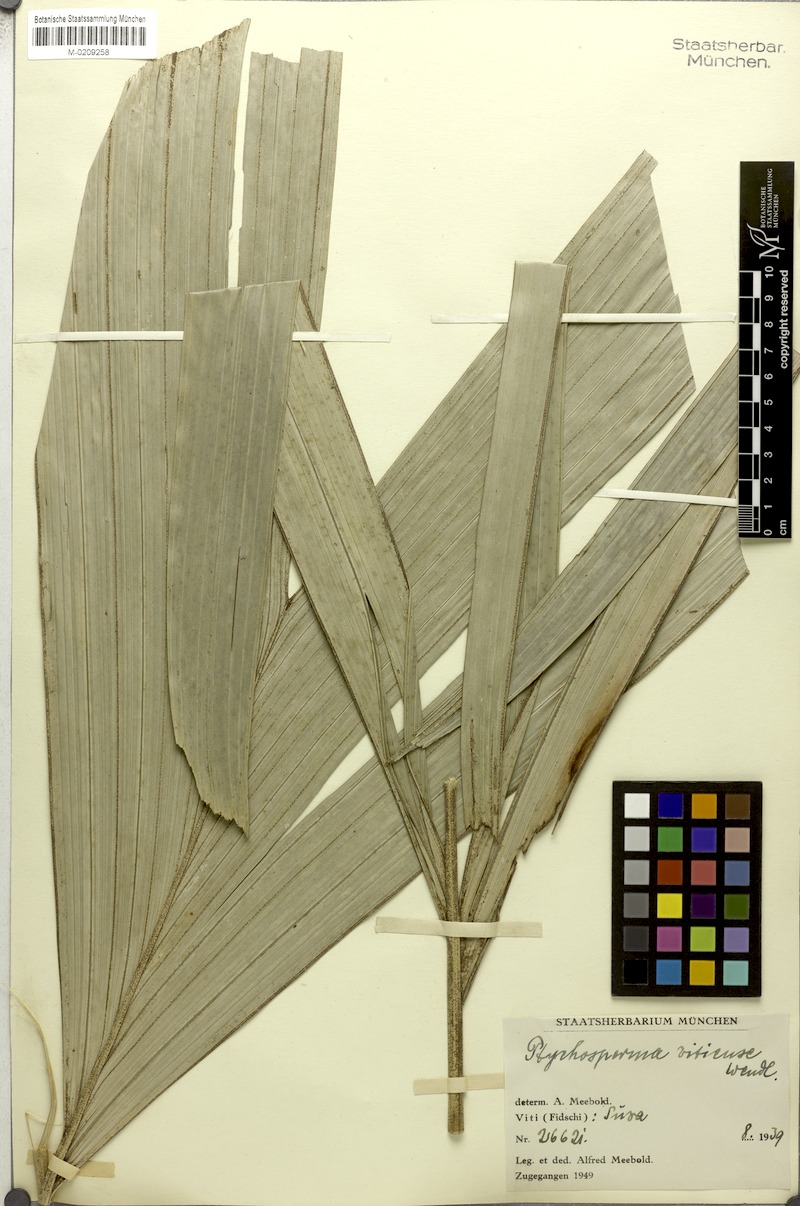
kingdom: Plantae
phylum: Tracheophyta
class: Liliopsida
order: Arecales
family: Arecaceae
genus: Veitchia
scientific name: Veitchia vitiensis
